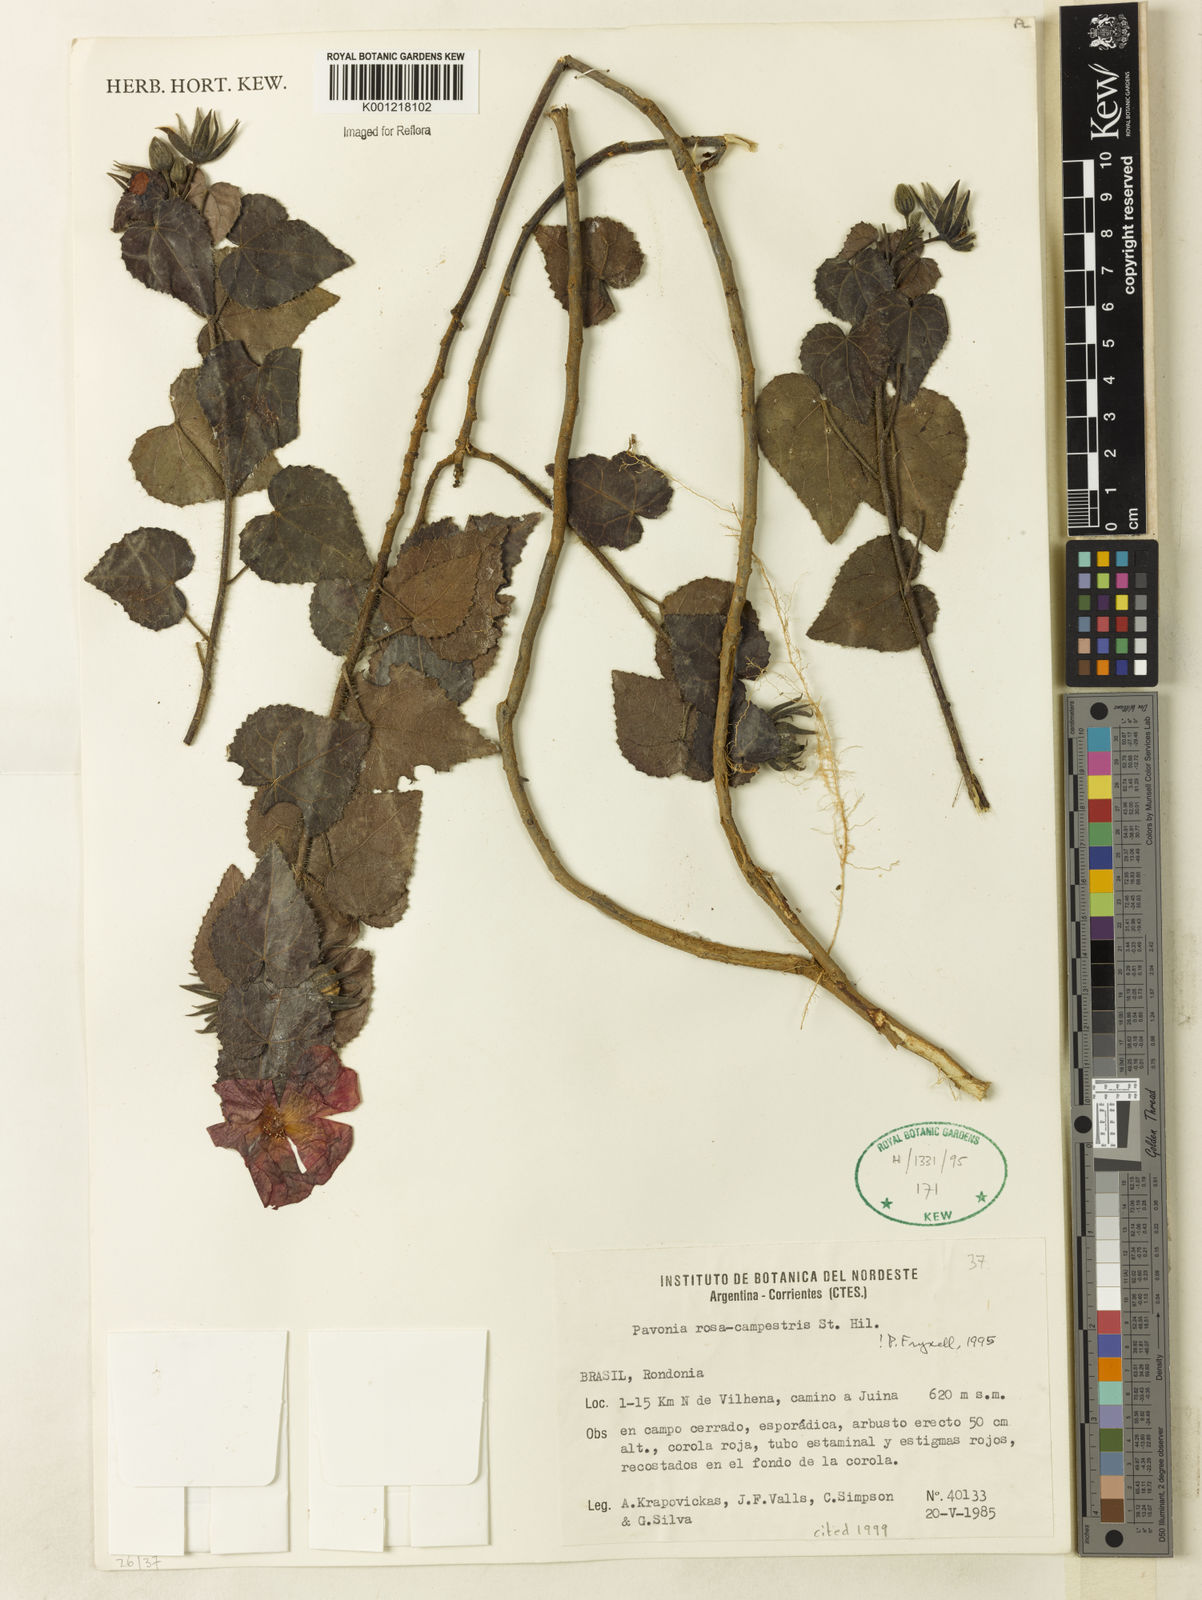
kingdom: Plantae
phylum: Tracheophyta
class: Magnoliopsida
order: Malvales
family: Malvaceae
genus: Pavonia
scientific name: Pavonia rosa-campestris
